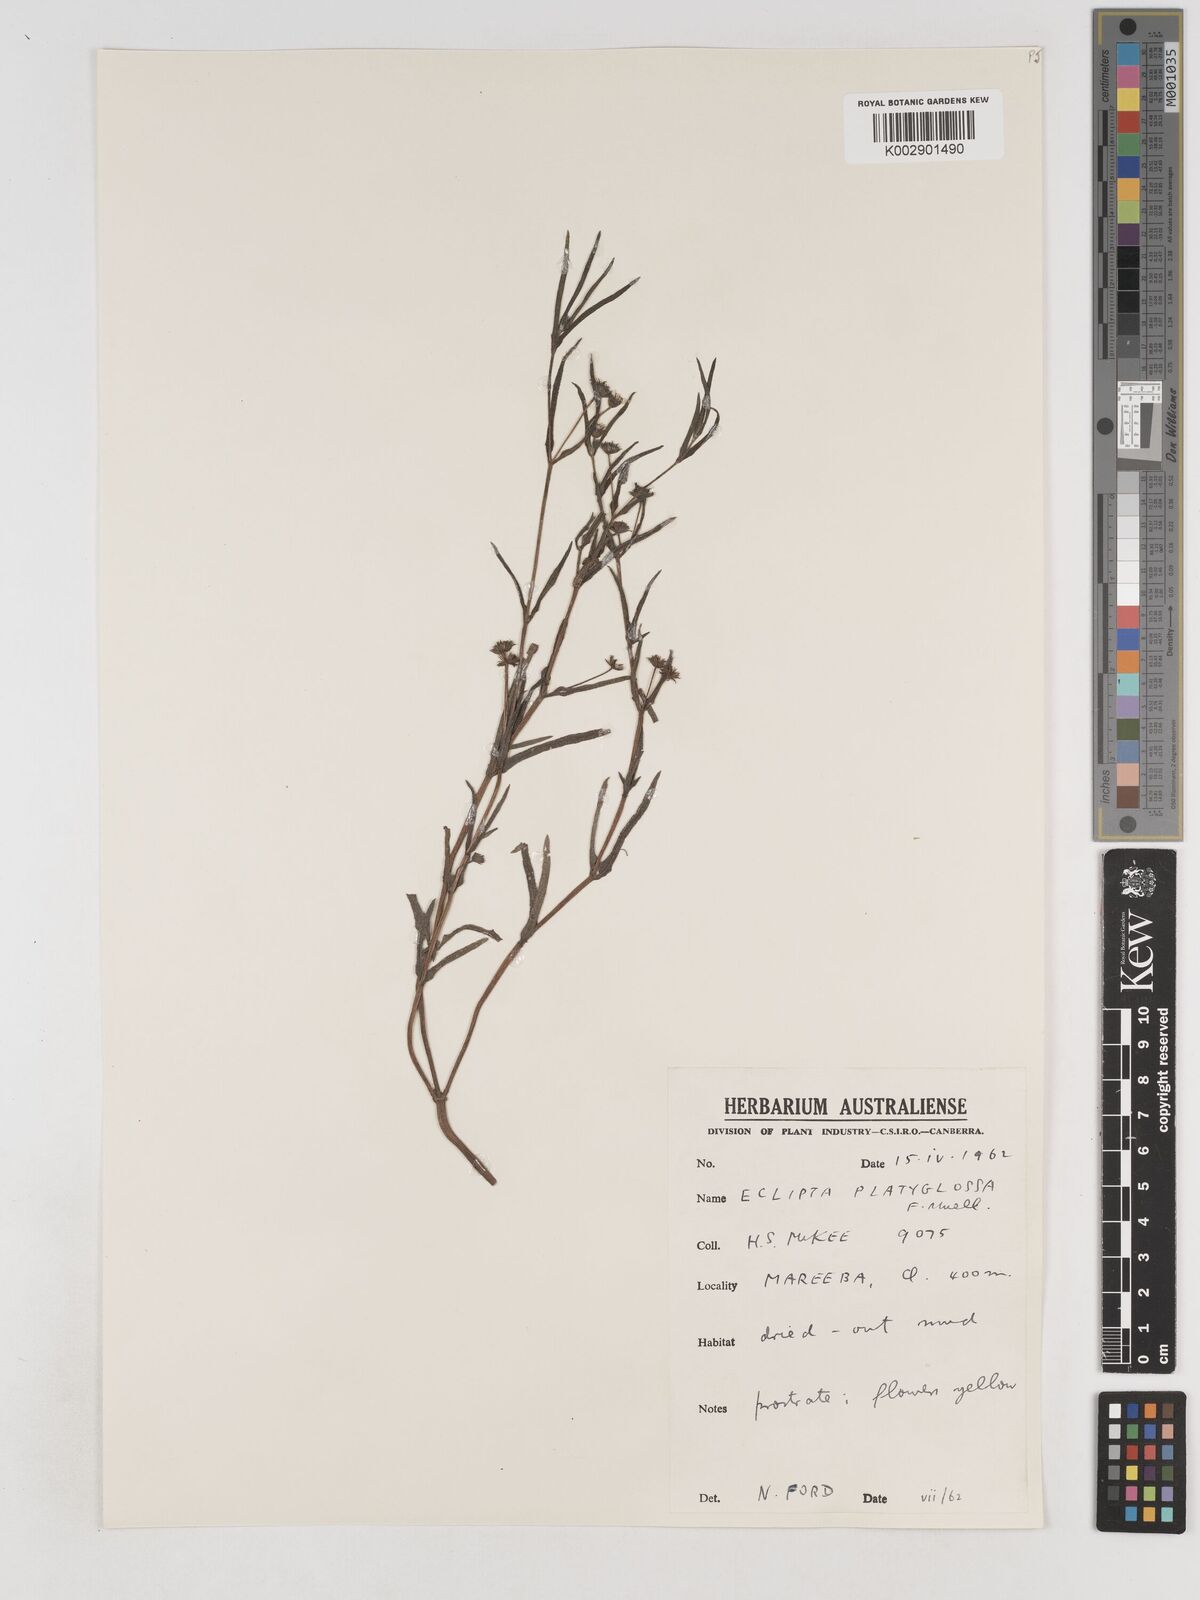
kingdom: Plantae
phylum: Tracheophyta
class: Magnoliopsida
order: Asterales
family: Asteraceae
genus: Eclipta
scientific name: Eclipta platyglossa
